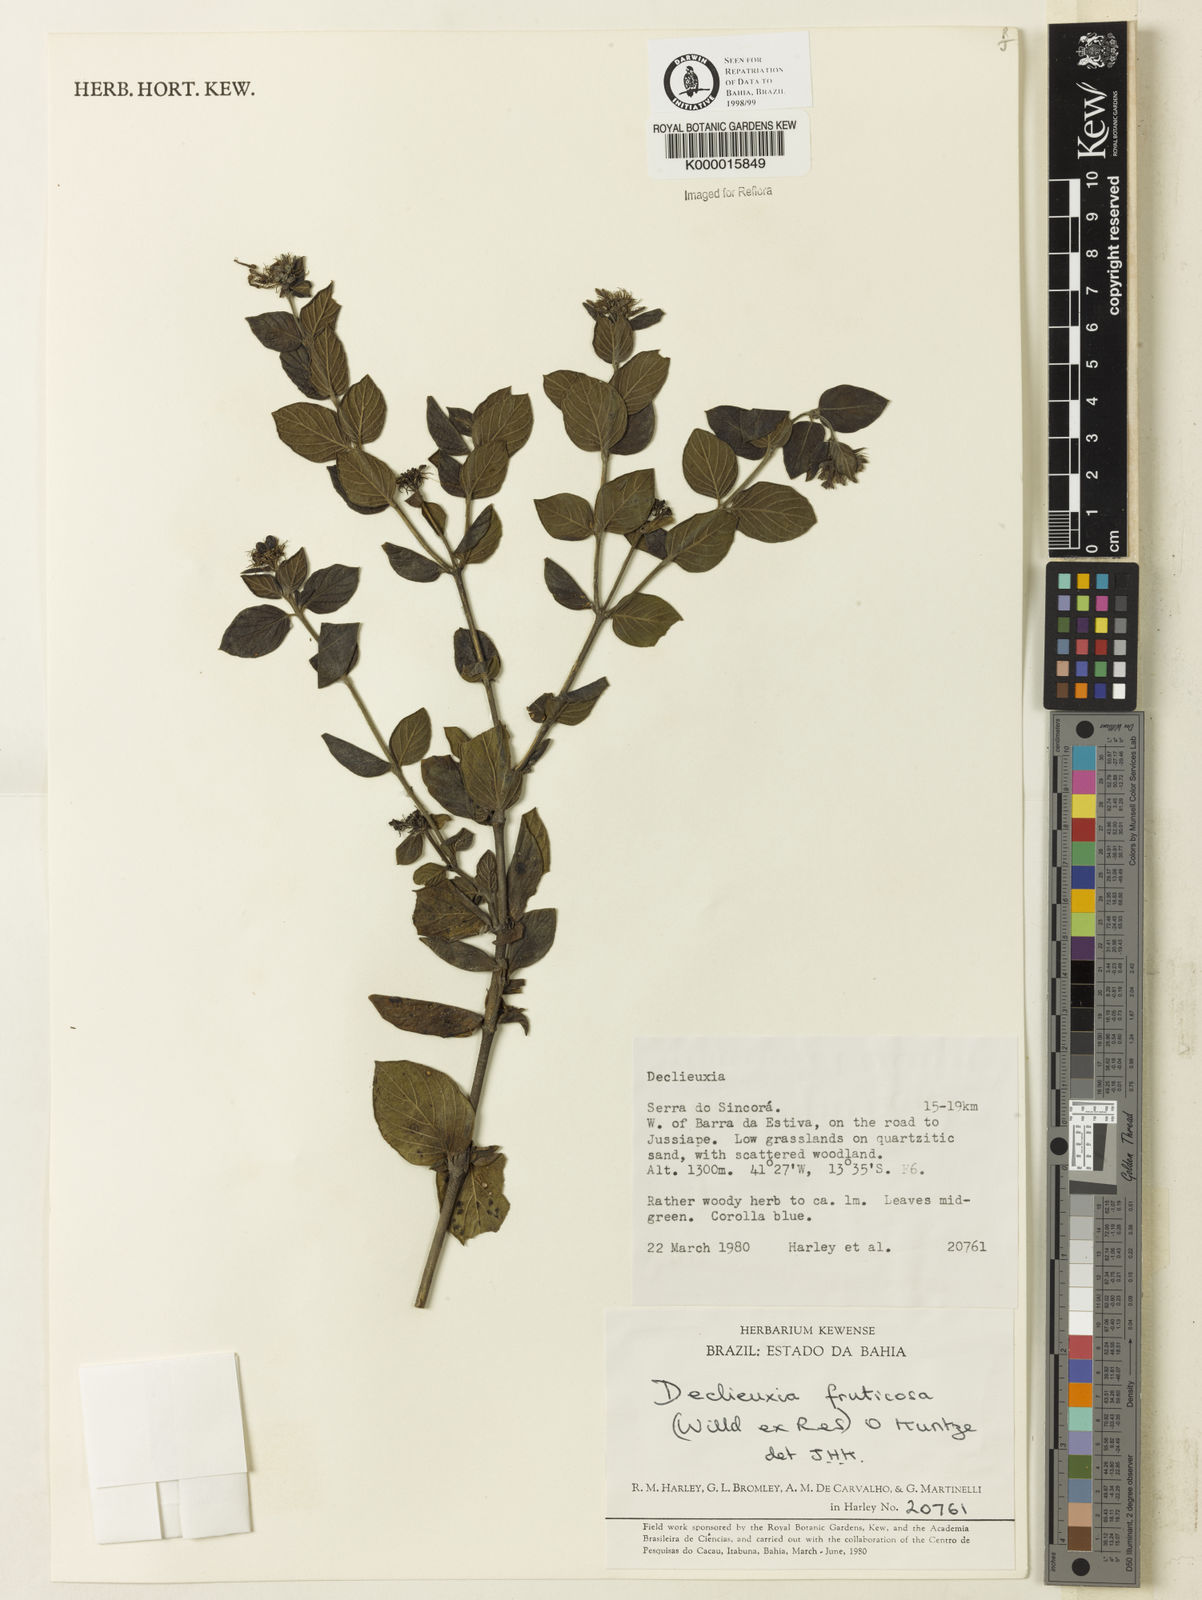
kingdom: Plantae
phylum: Tracheophyta
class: Magnoliopsida
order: Gentianales
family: Rubiaceae
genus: Declieuxia
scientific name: Declieuxia fruticosa
